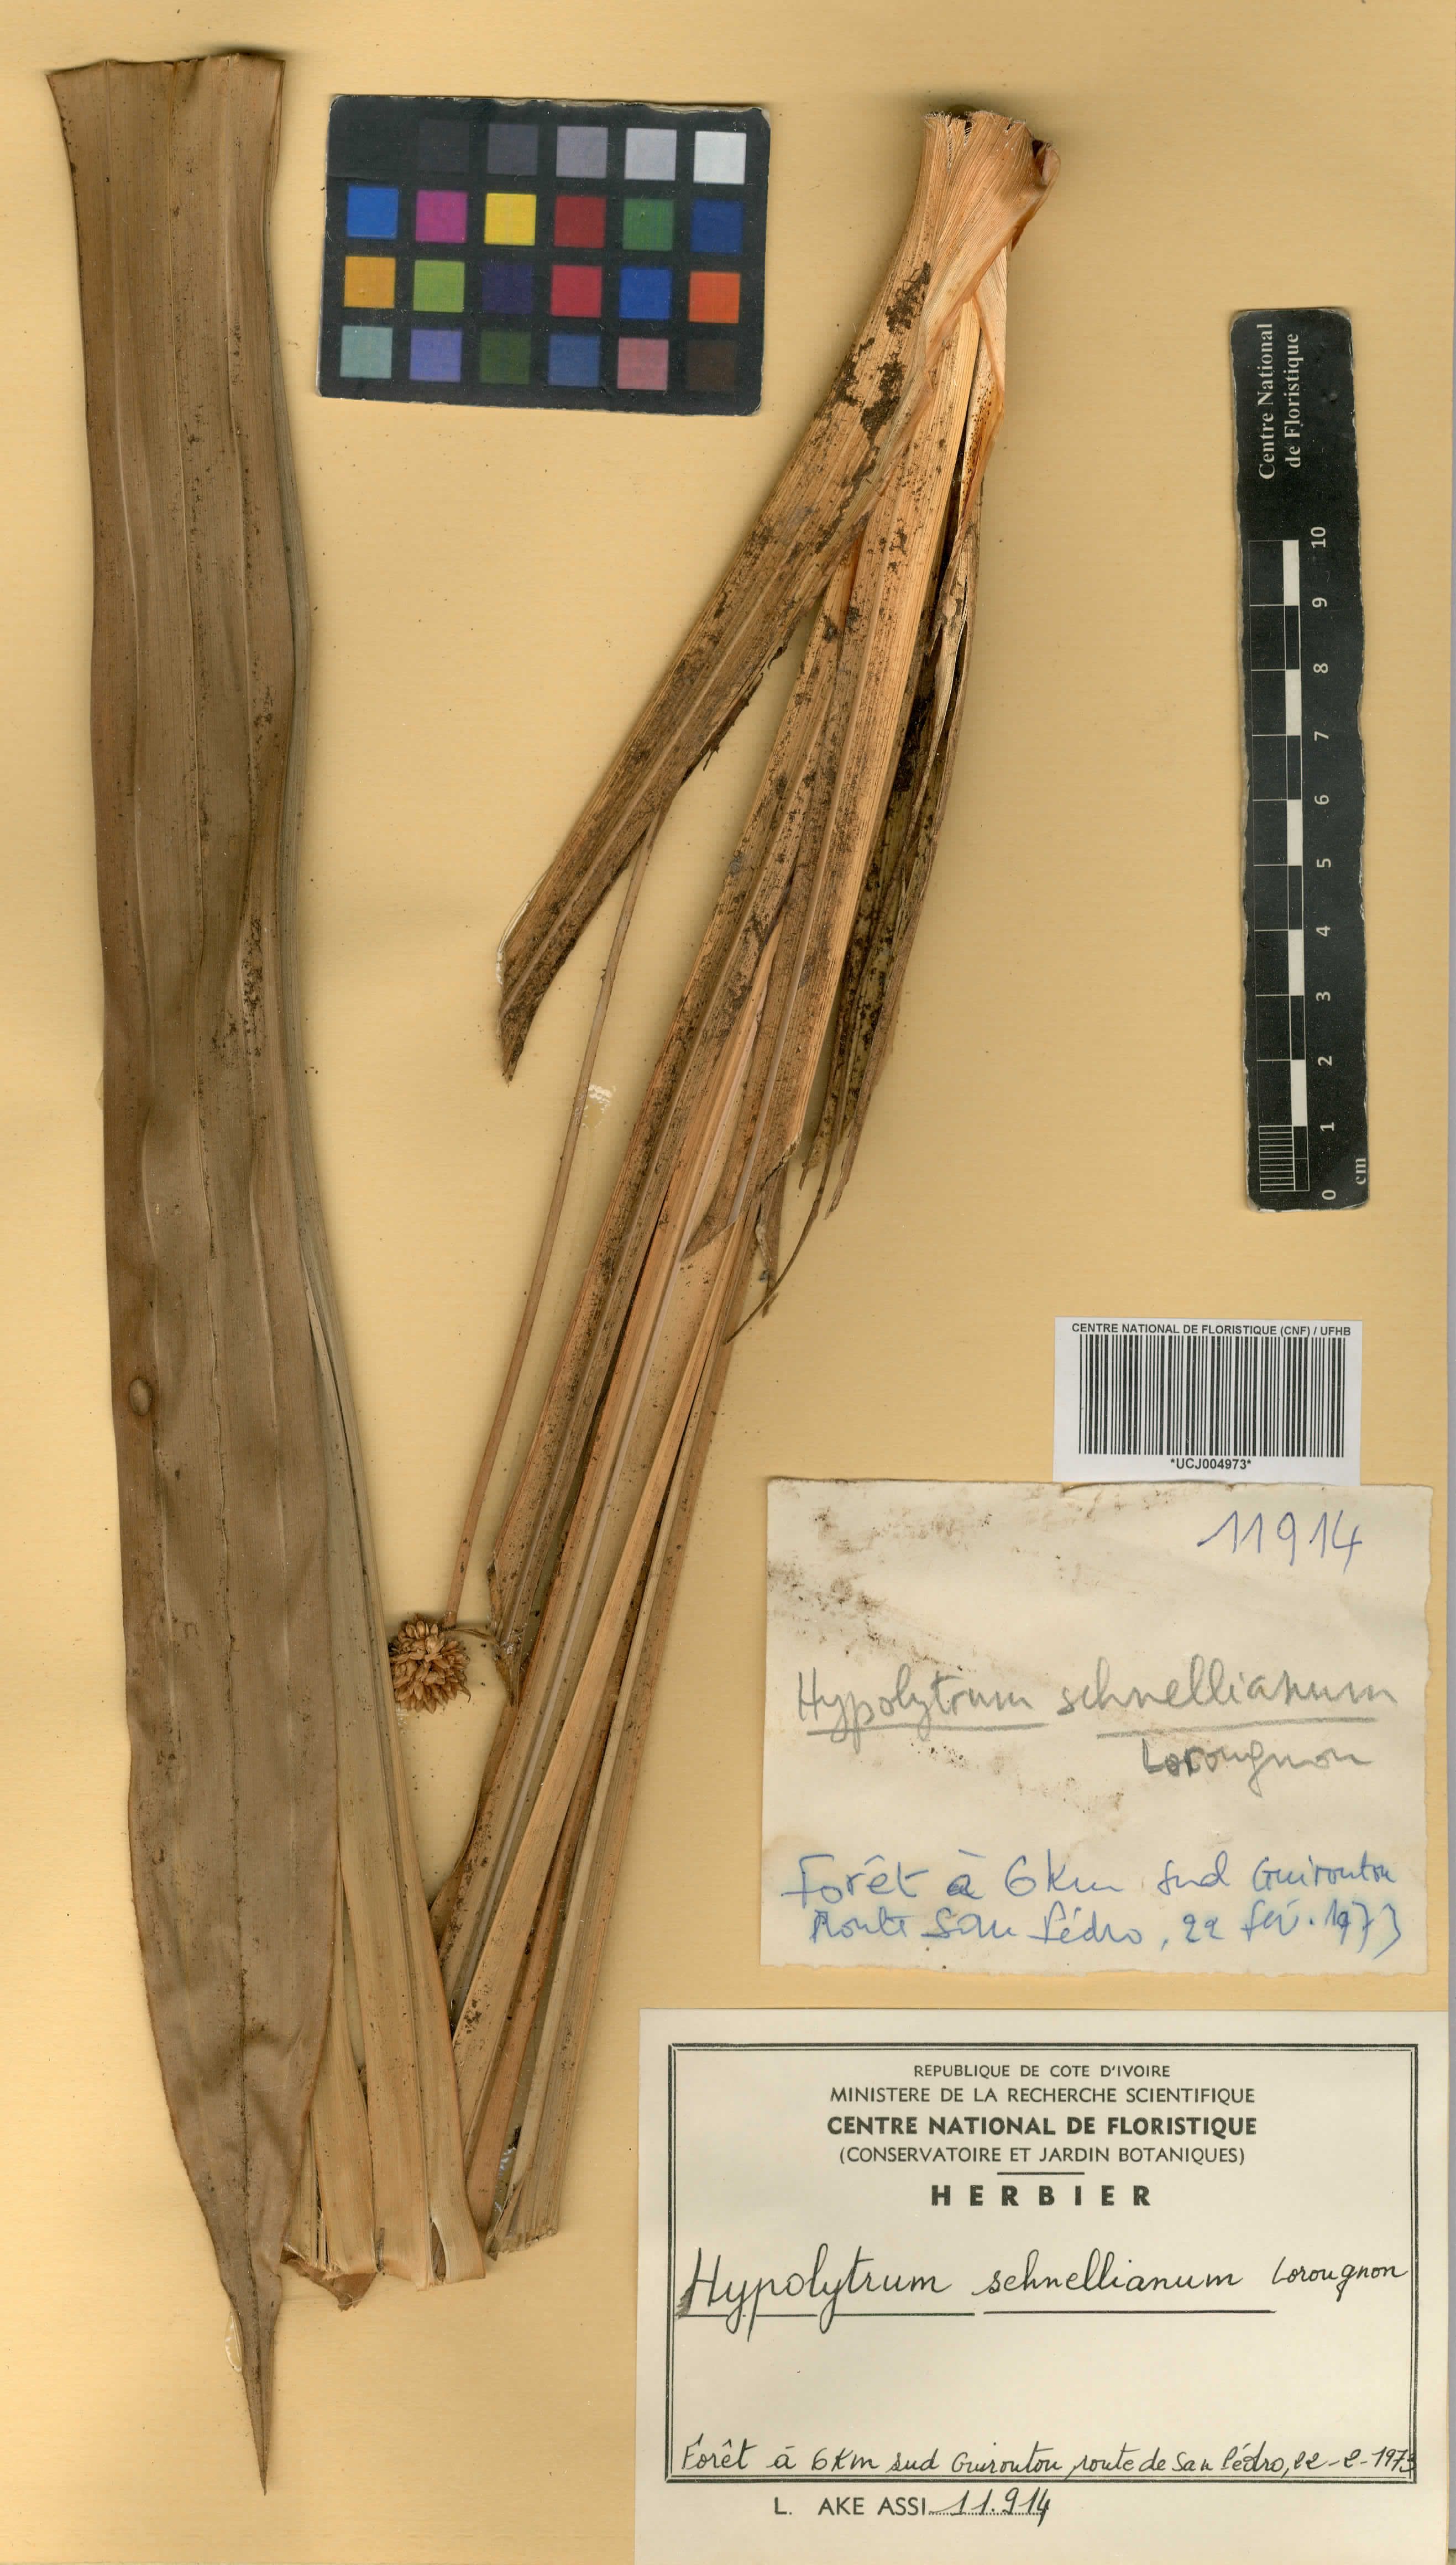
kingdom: Plantae
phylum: Tracheophyta
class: Liliopsida
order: Poales
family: Cyperaceae
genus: Hypolytrum
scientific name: Hypolytrum schnellianum
